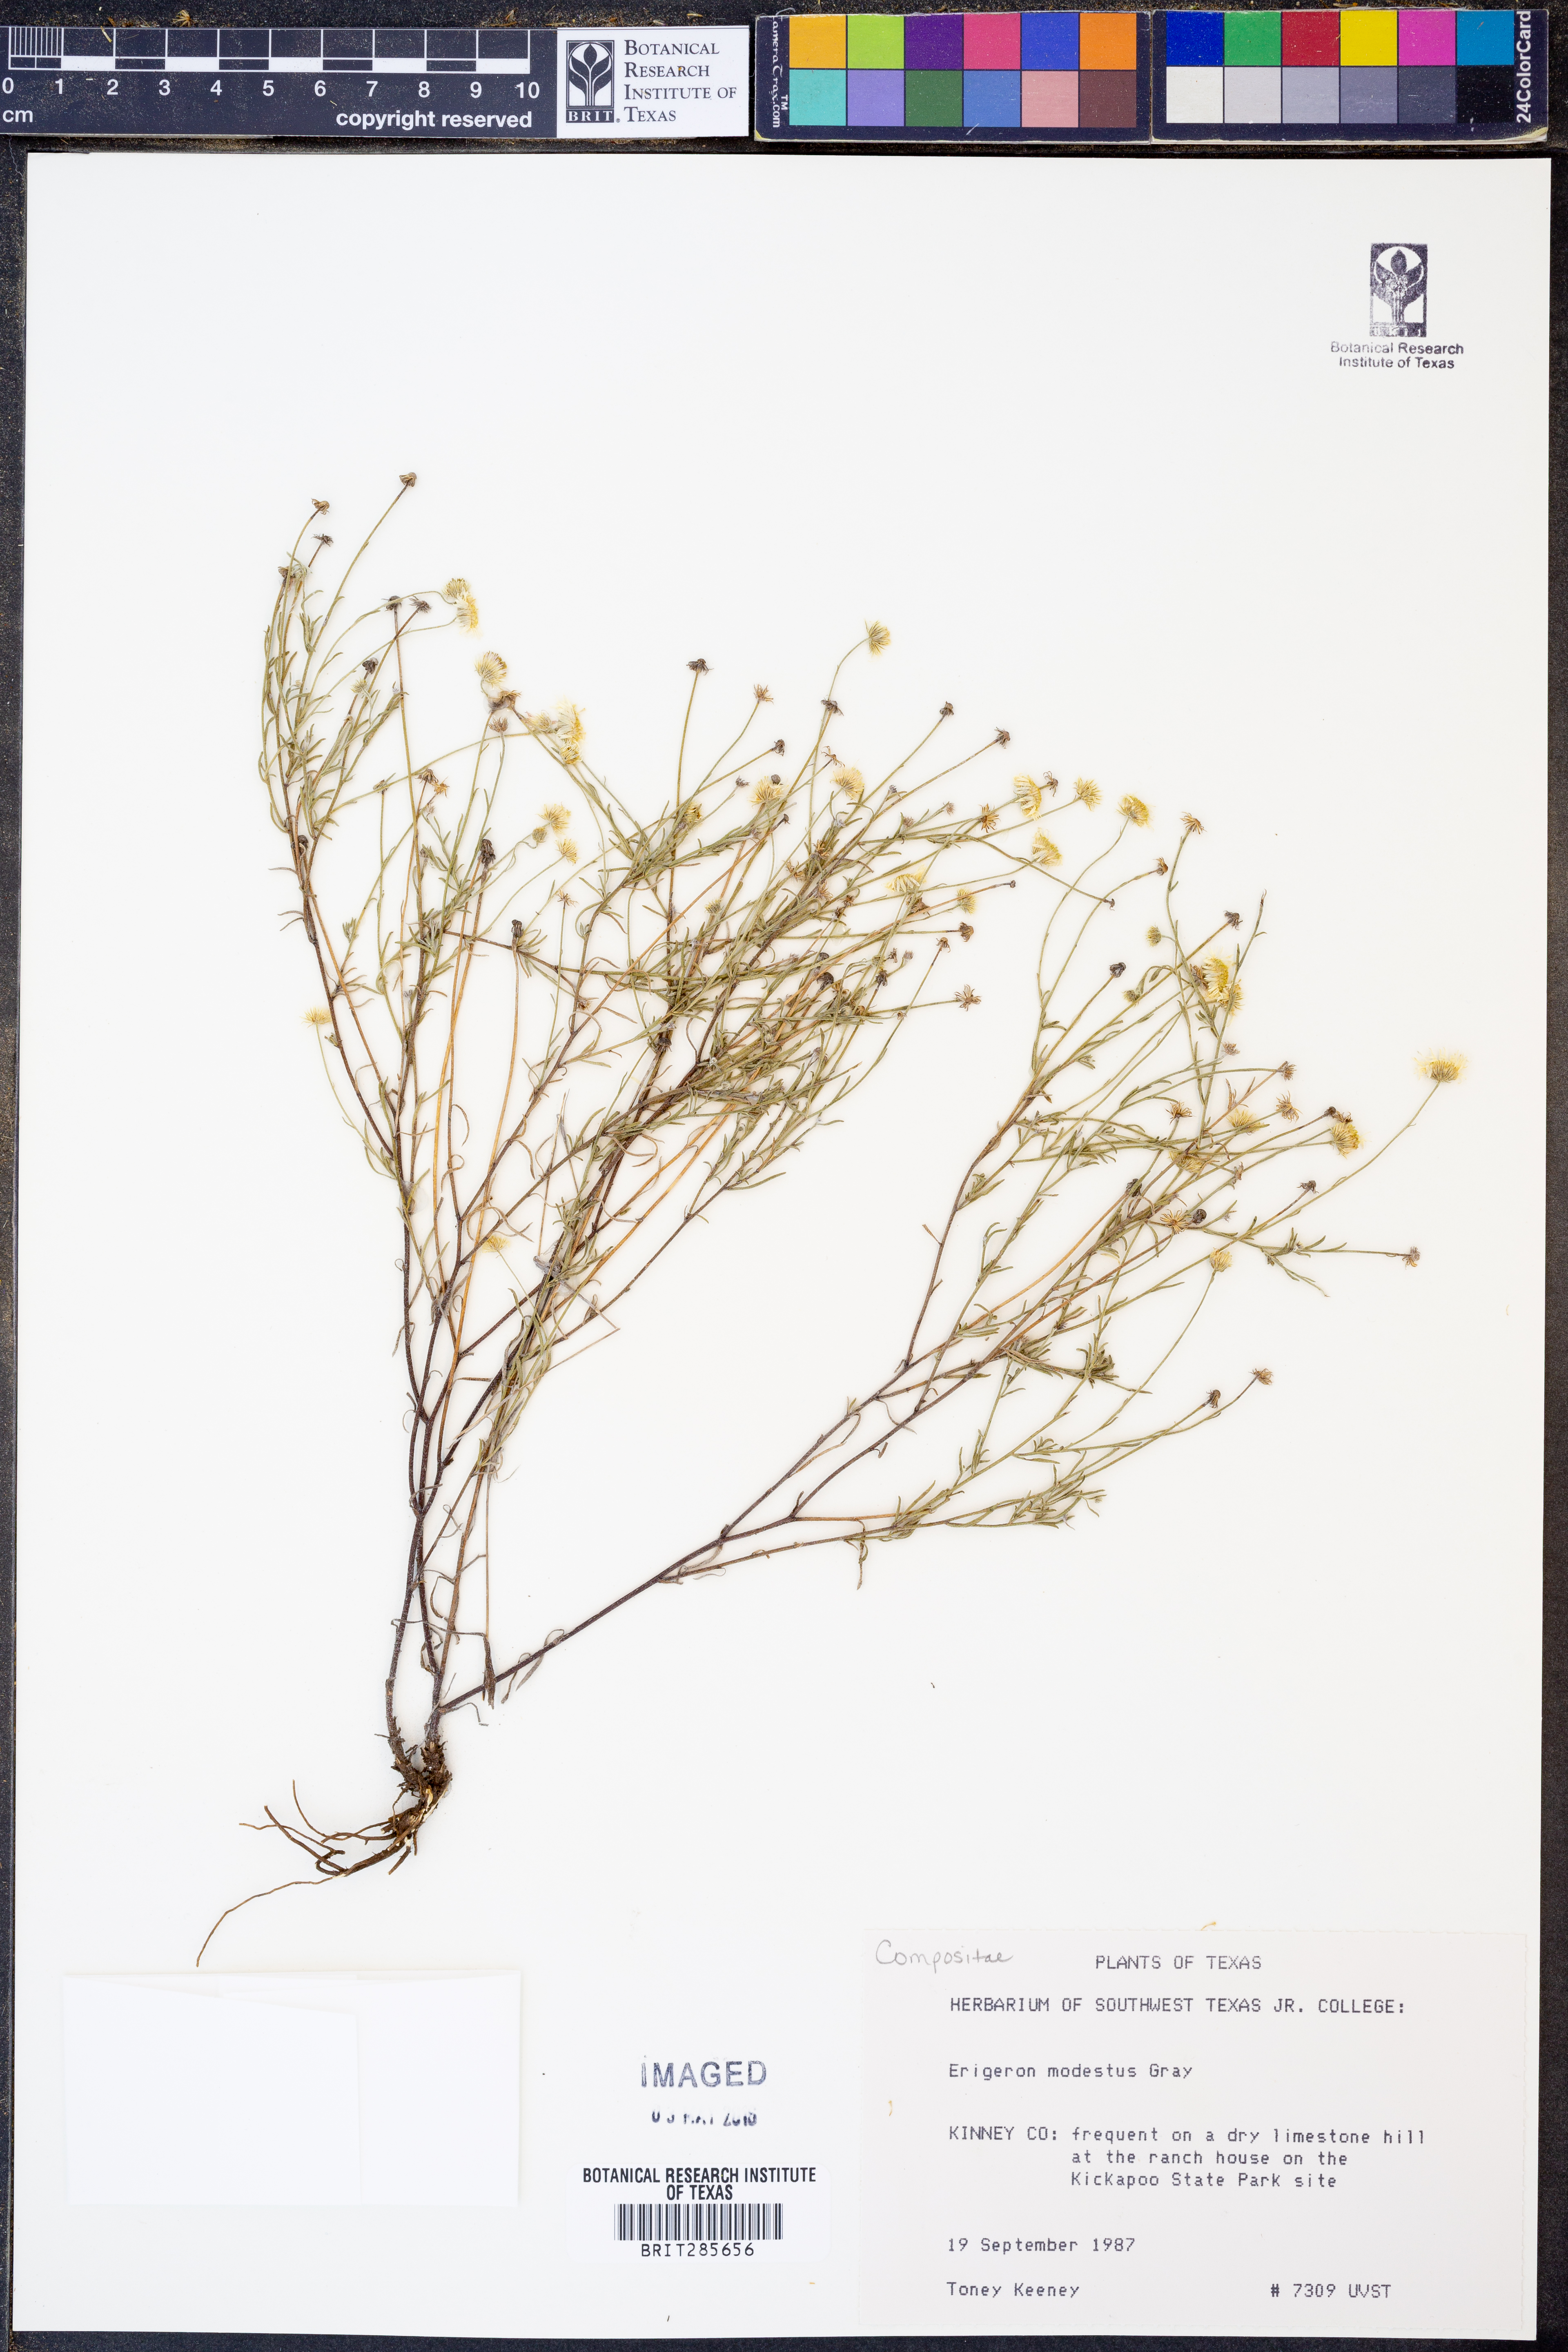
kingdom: Plantae
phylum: Tracheophyta
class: Magnoliopsida
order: Asterales
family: Asteraceae
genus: Erigeron
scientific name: Erigeron modestus
